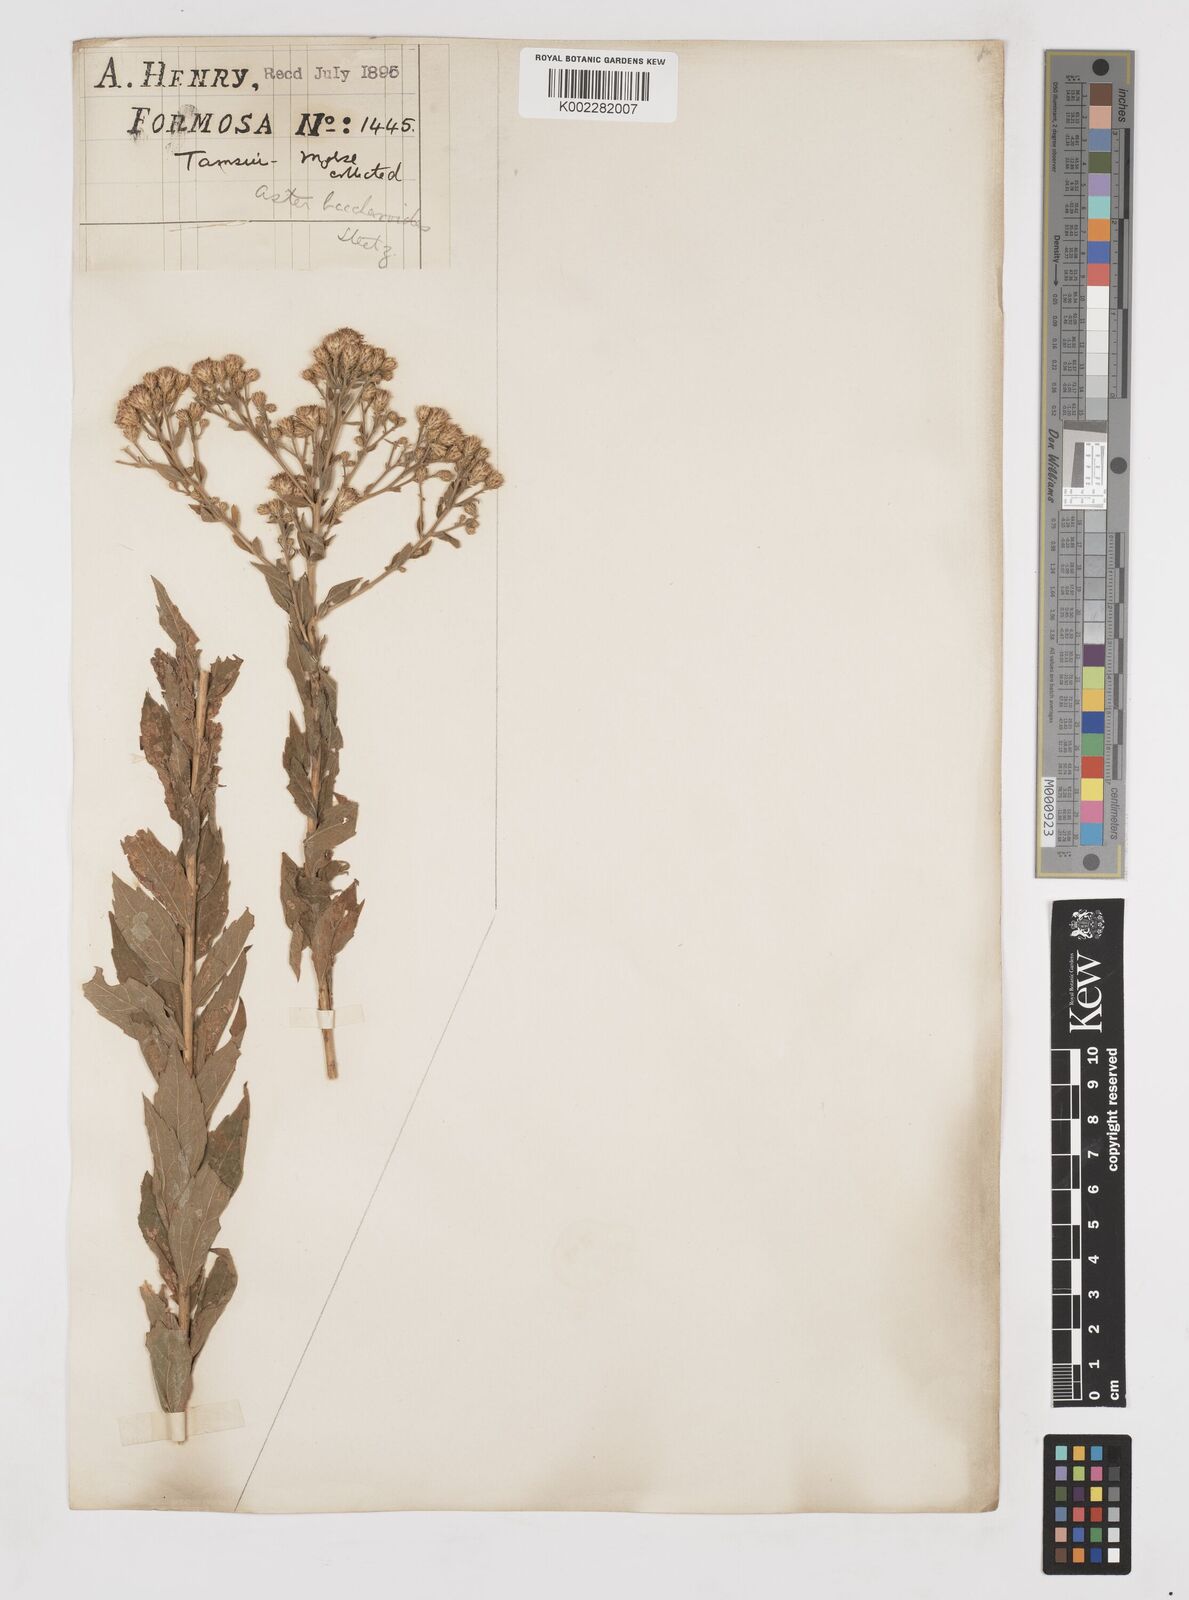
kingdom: Plantae
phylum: Tracheophyta
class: Magnoliopsida
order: Asterales
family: Asteraceae
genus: Aster
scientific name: Aster baccharoides
